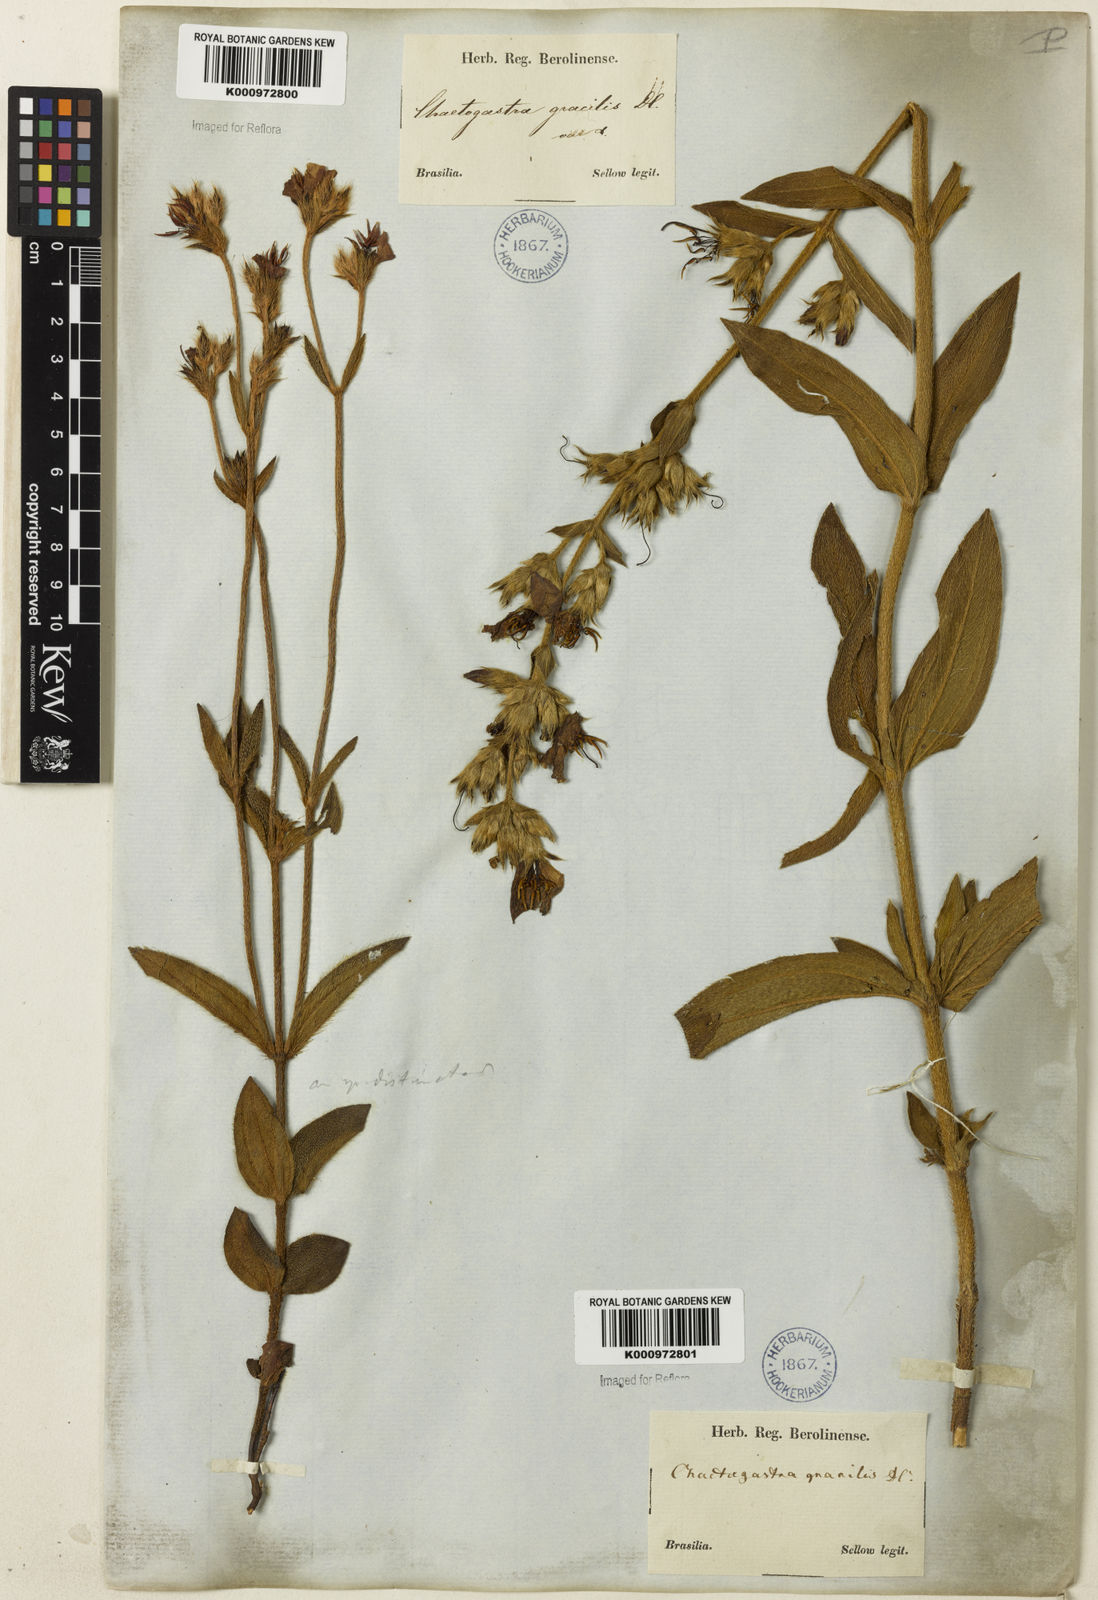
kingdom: Plantae
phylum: Tracheophyta
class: Magnoliopsida
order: Myrtales
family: Melastomataceae
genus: Chaetogastra
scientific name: Chaetogastra gracilis
